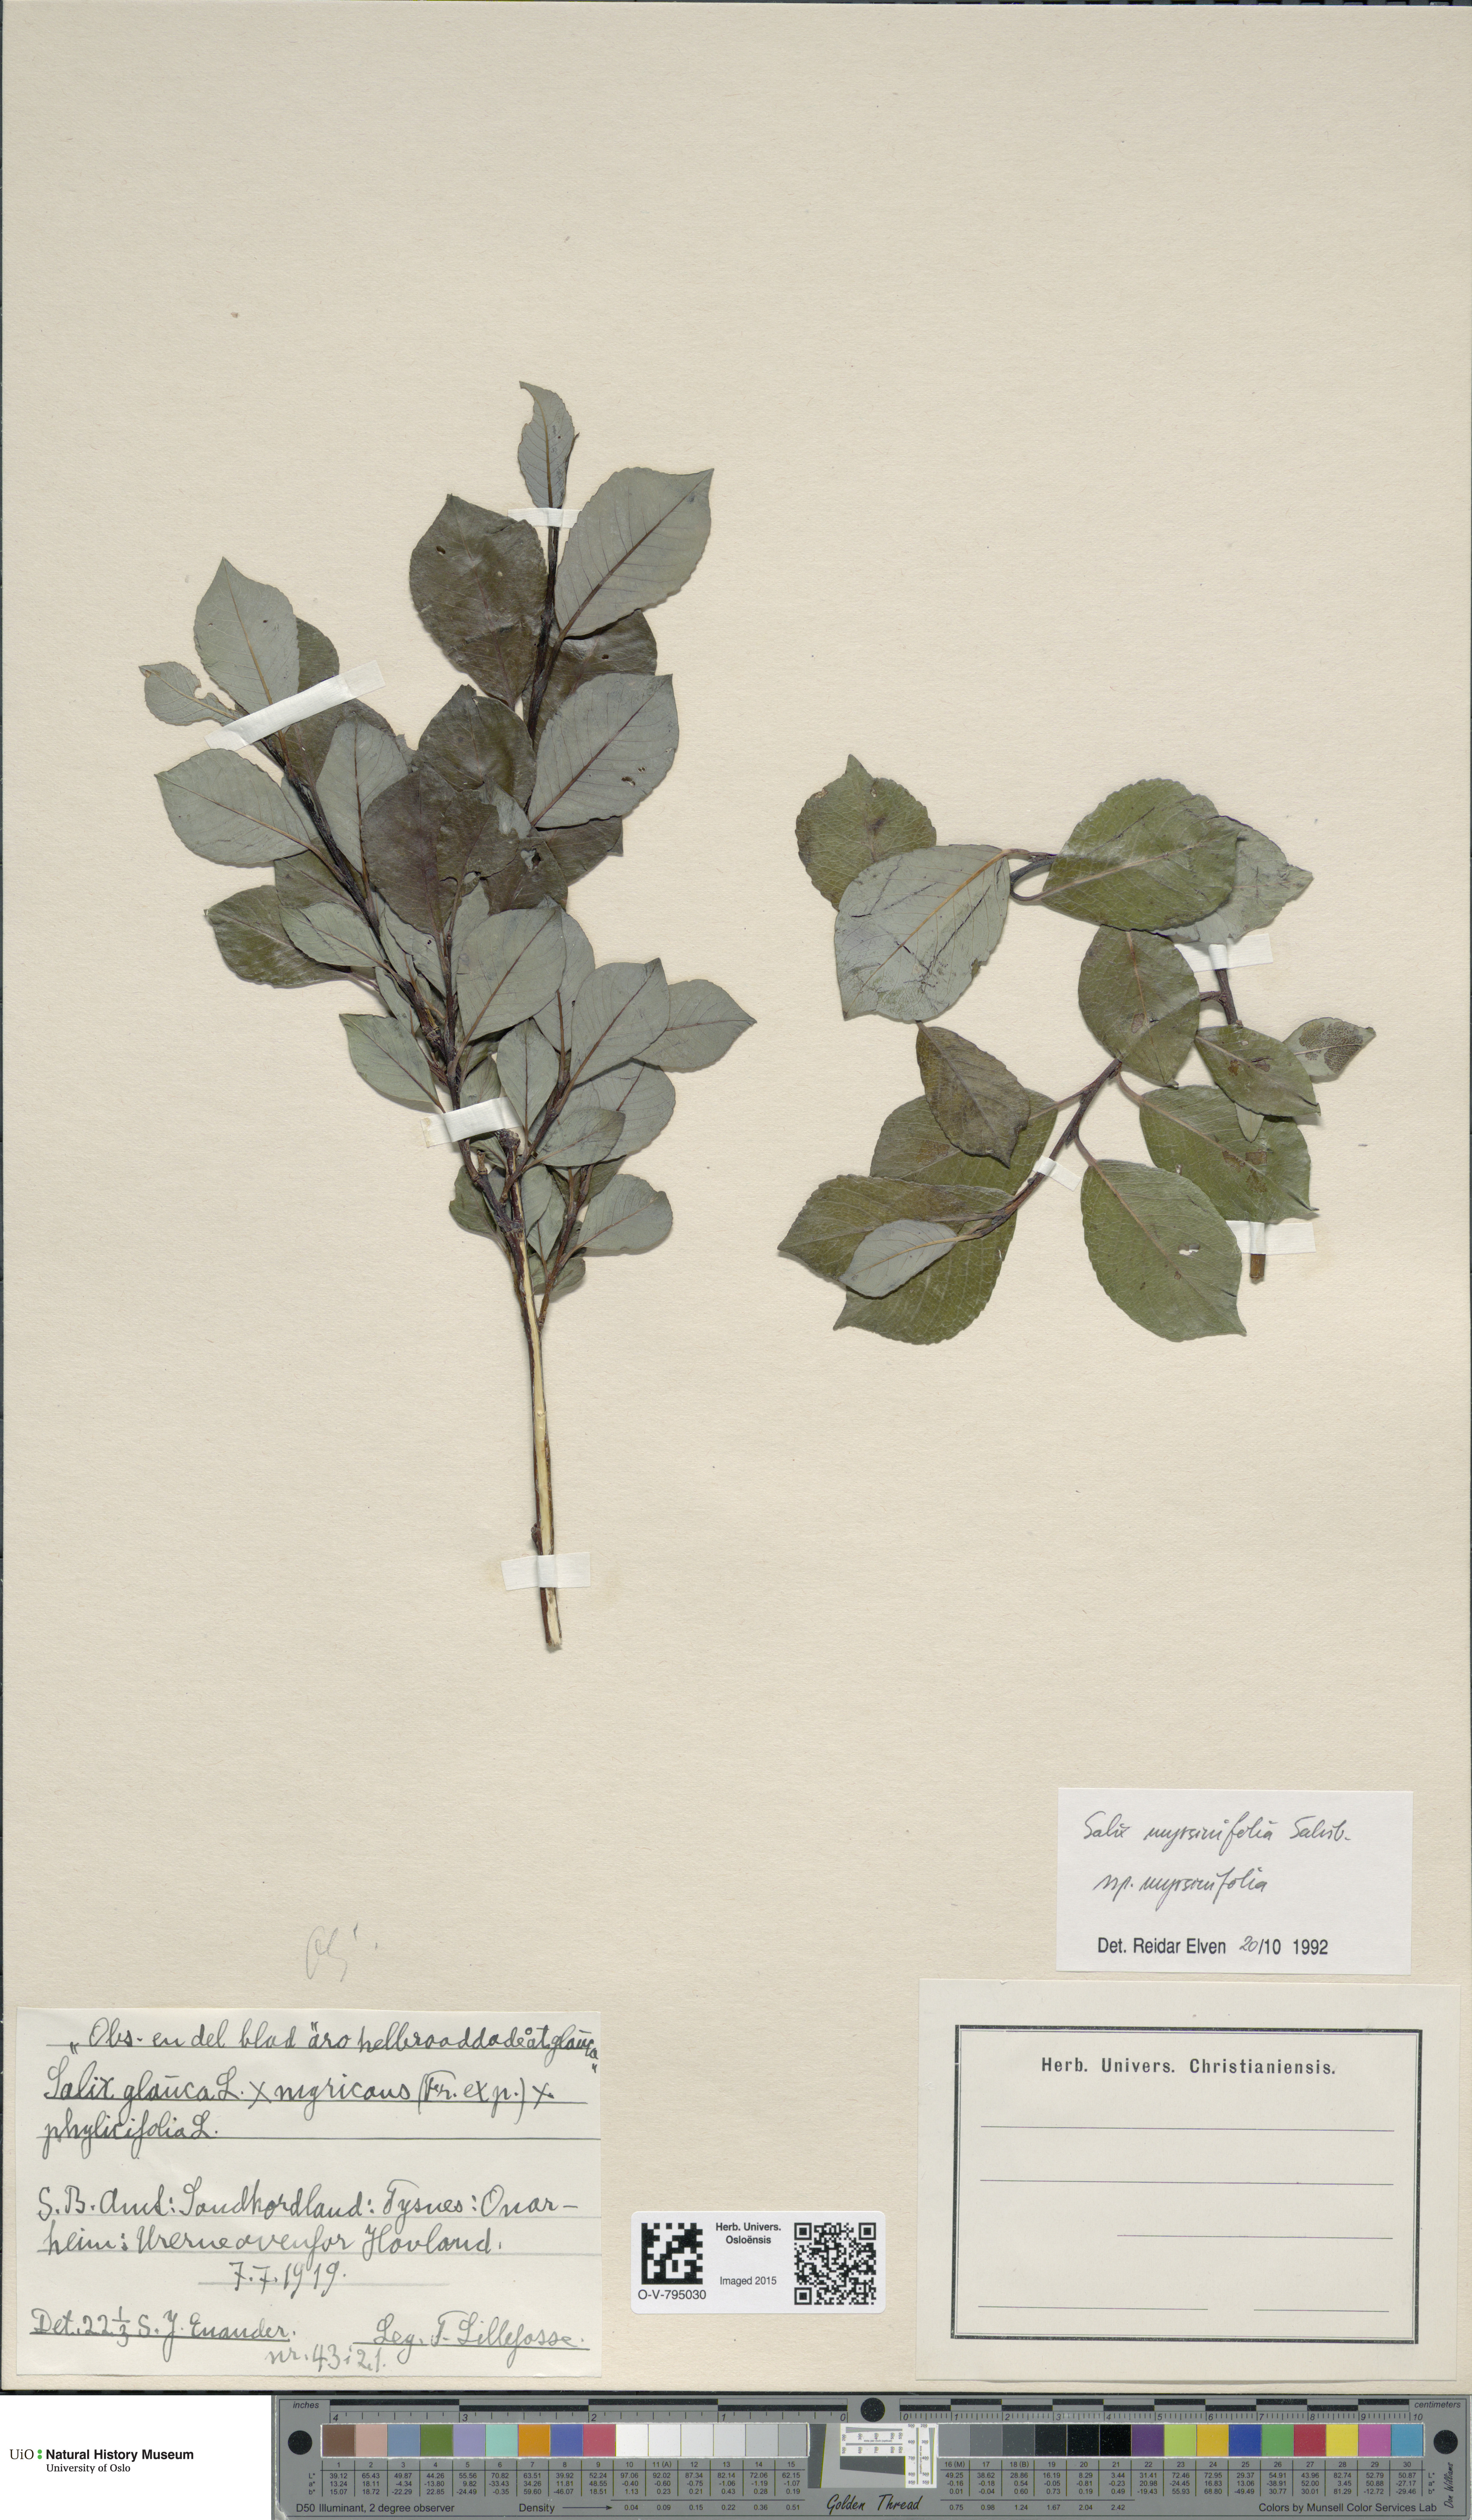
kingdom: Plantae
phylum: Tracheophyta
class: Magnoliopsida
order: Malpighiales
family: Salicaceae
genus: Salix
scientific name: Salix myrsinifolia
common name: Dark-leaved willow
